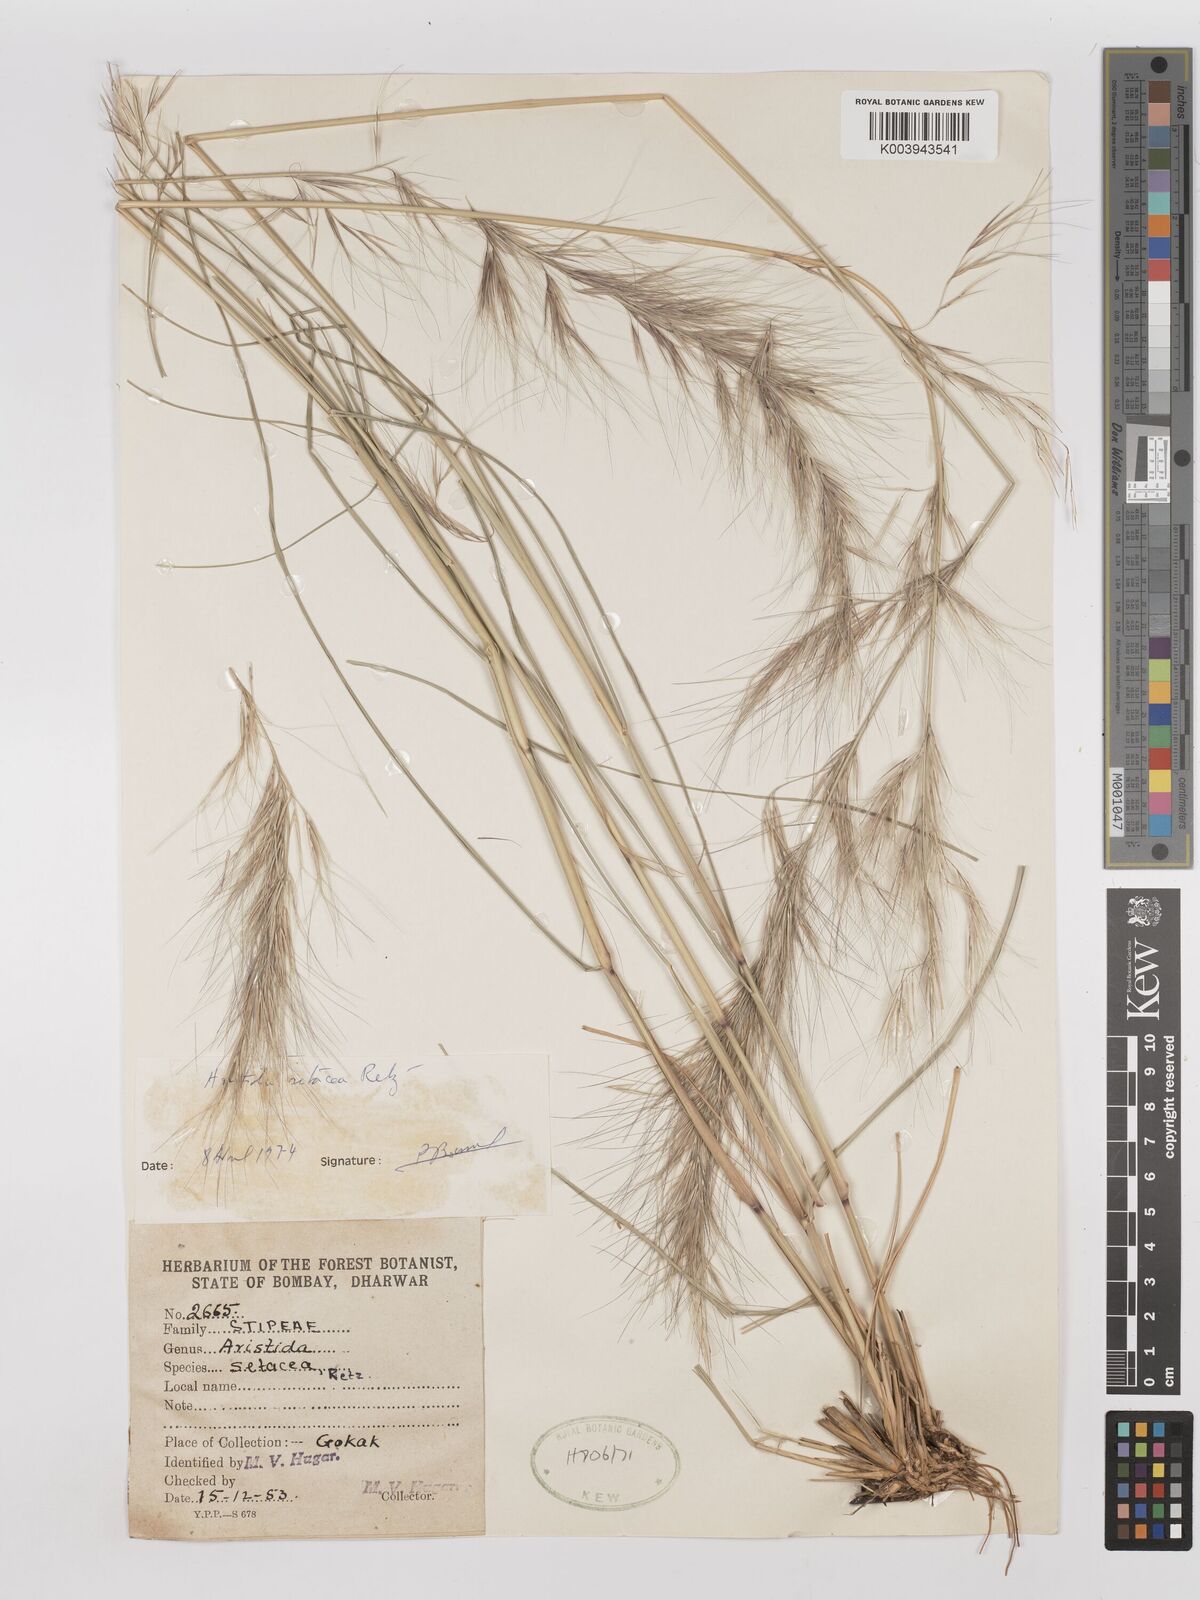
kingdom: Plantae
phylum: Tracheophyta
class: Liliopsida
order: Poales
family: Poaceae
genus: Aristida
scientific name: Aristida setacea
